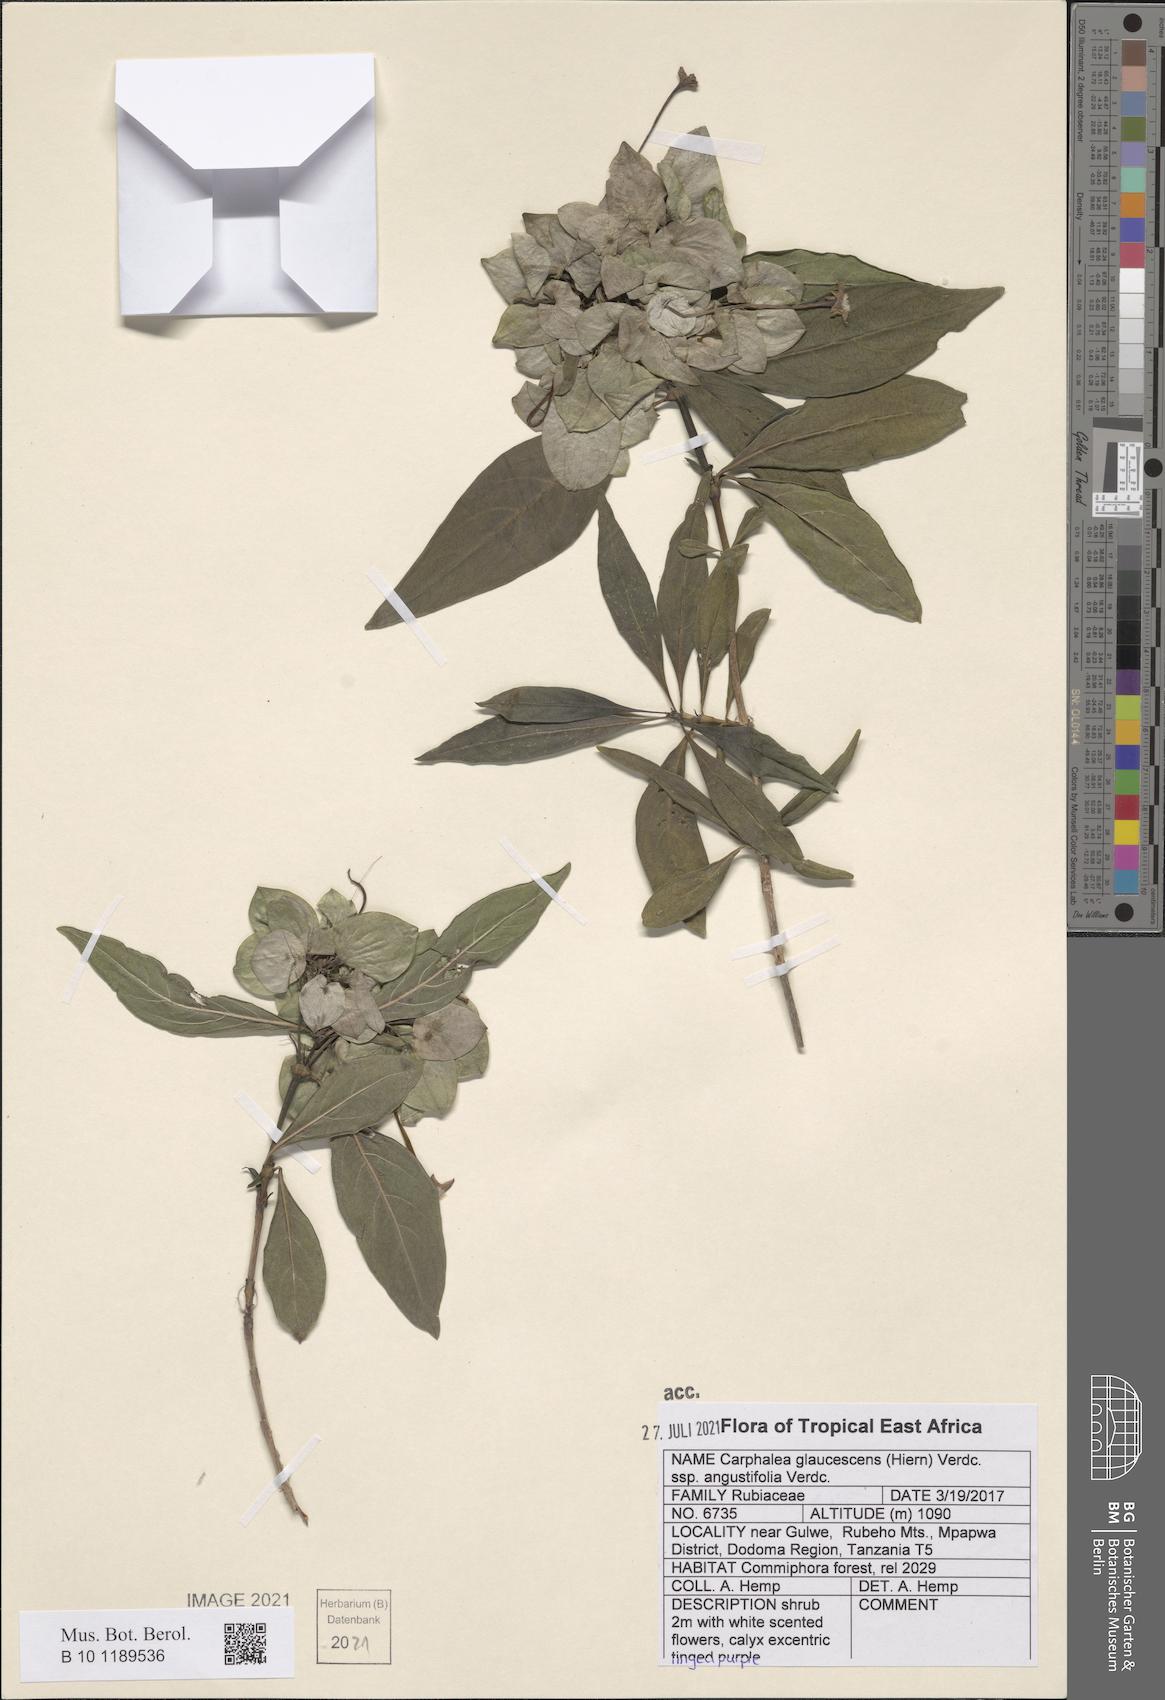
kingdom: Plantae
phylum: Tracheophyta
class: Magnoliopsida
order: Gentianales
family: Rubiaceae
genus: Dirichletia
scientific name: Dirichletia glaucescens
